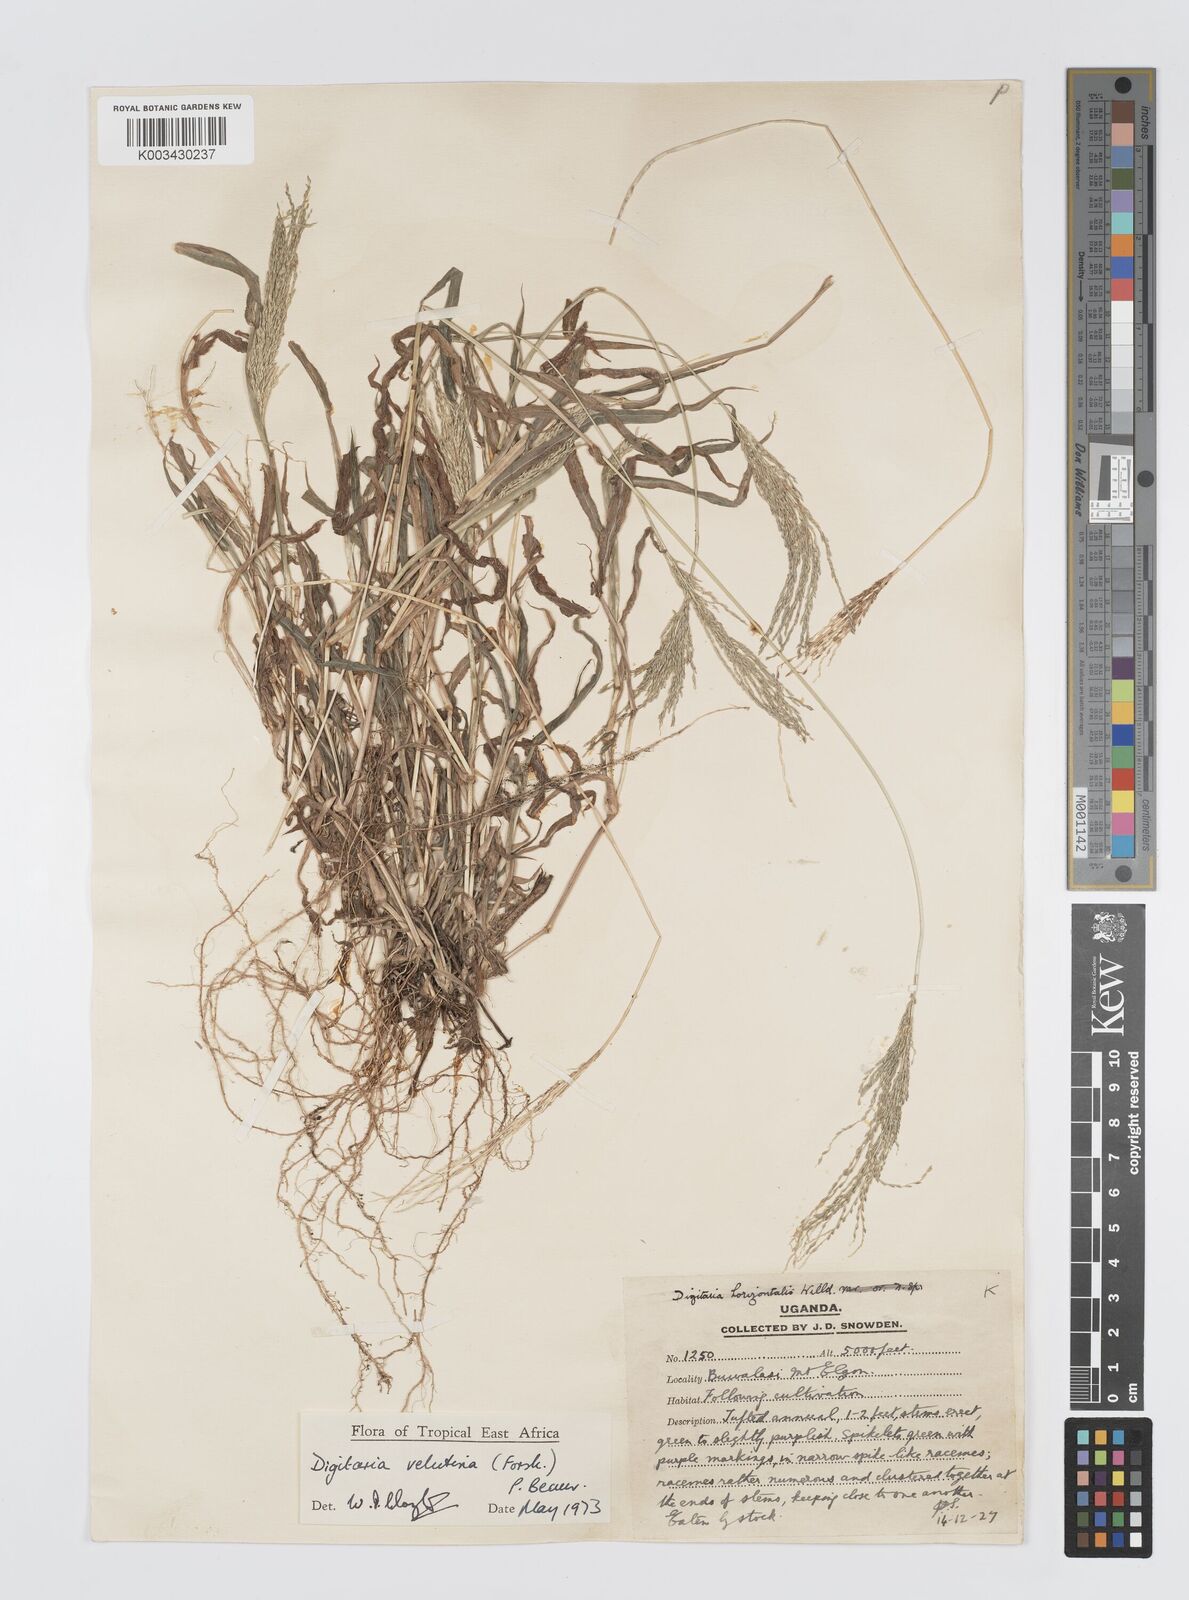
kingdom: Plantae
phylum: Tracheophyta
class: Liliopsida
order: Poales
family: Poaceae
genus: Digitaria
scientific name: Digitaria velutina
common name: Long-plume finger grass
